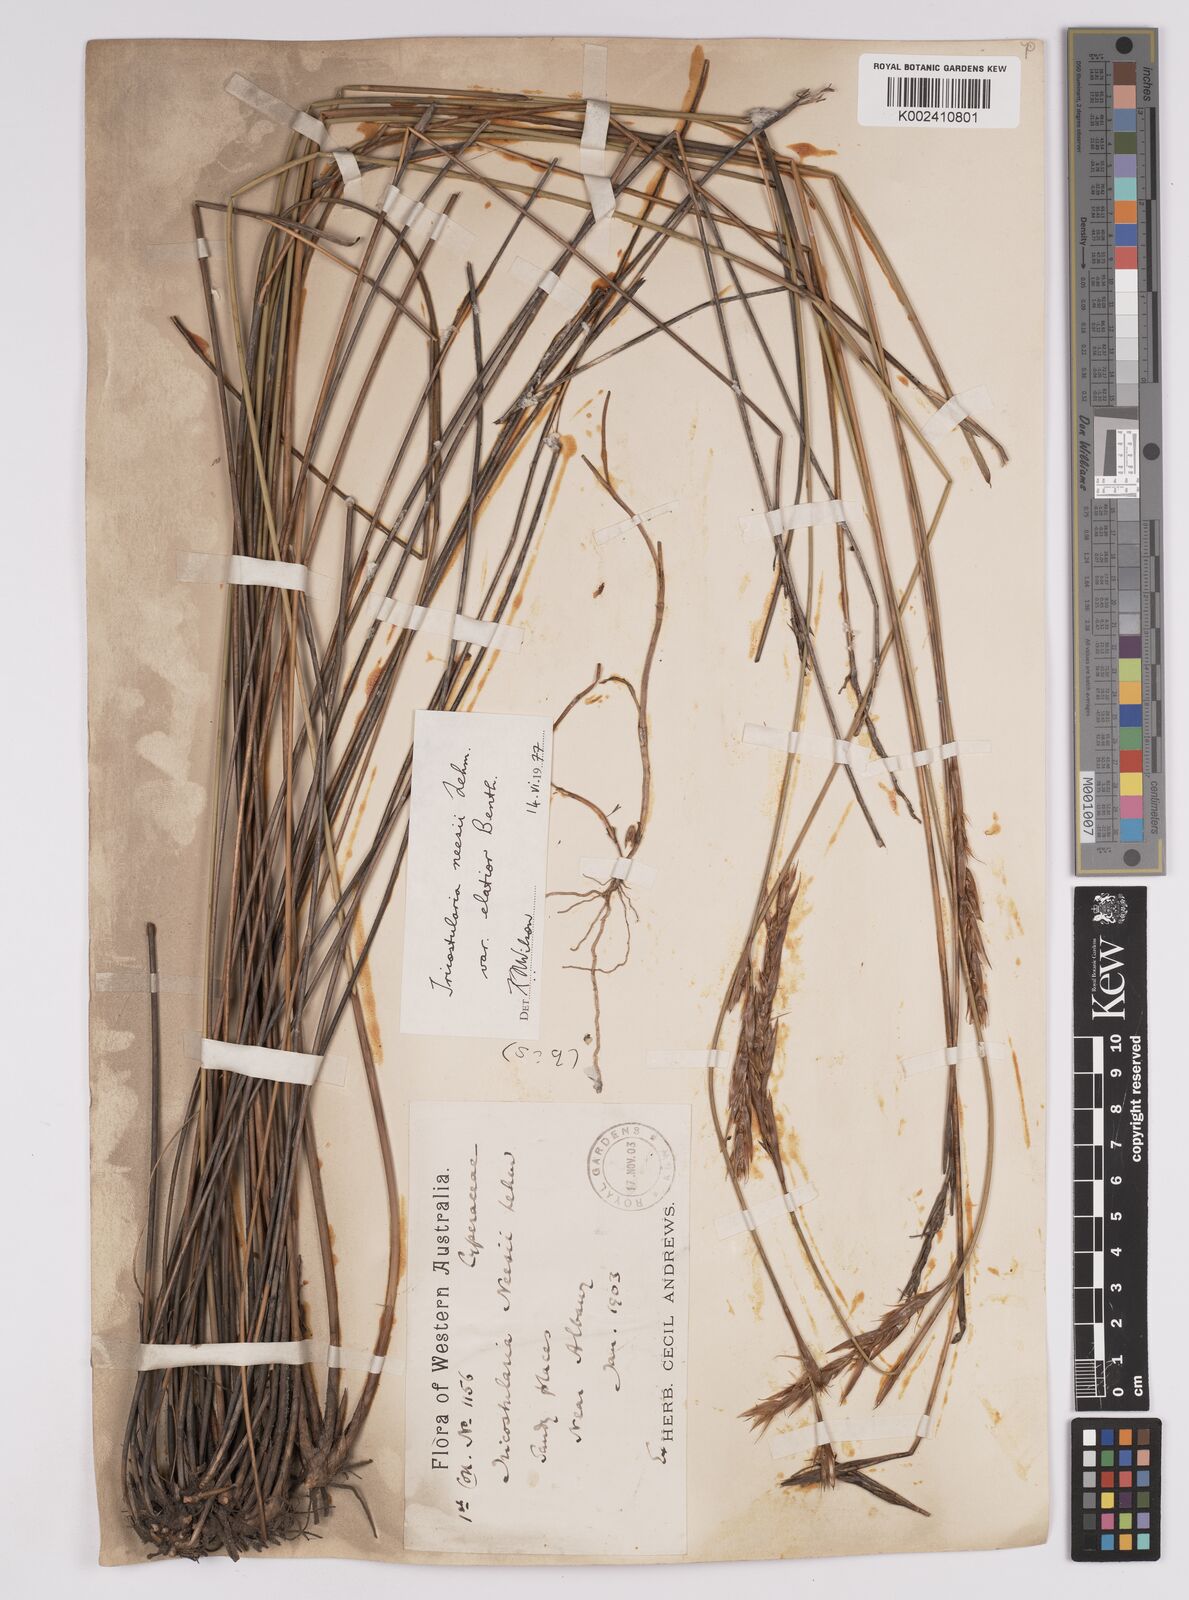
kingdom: Plantae
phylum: Tracheophyta
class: Liliopsida
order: Poales
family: Cyperaceae
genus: Tricostularia
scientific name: Tricostularia neesii
